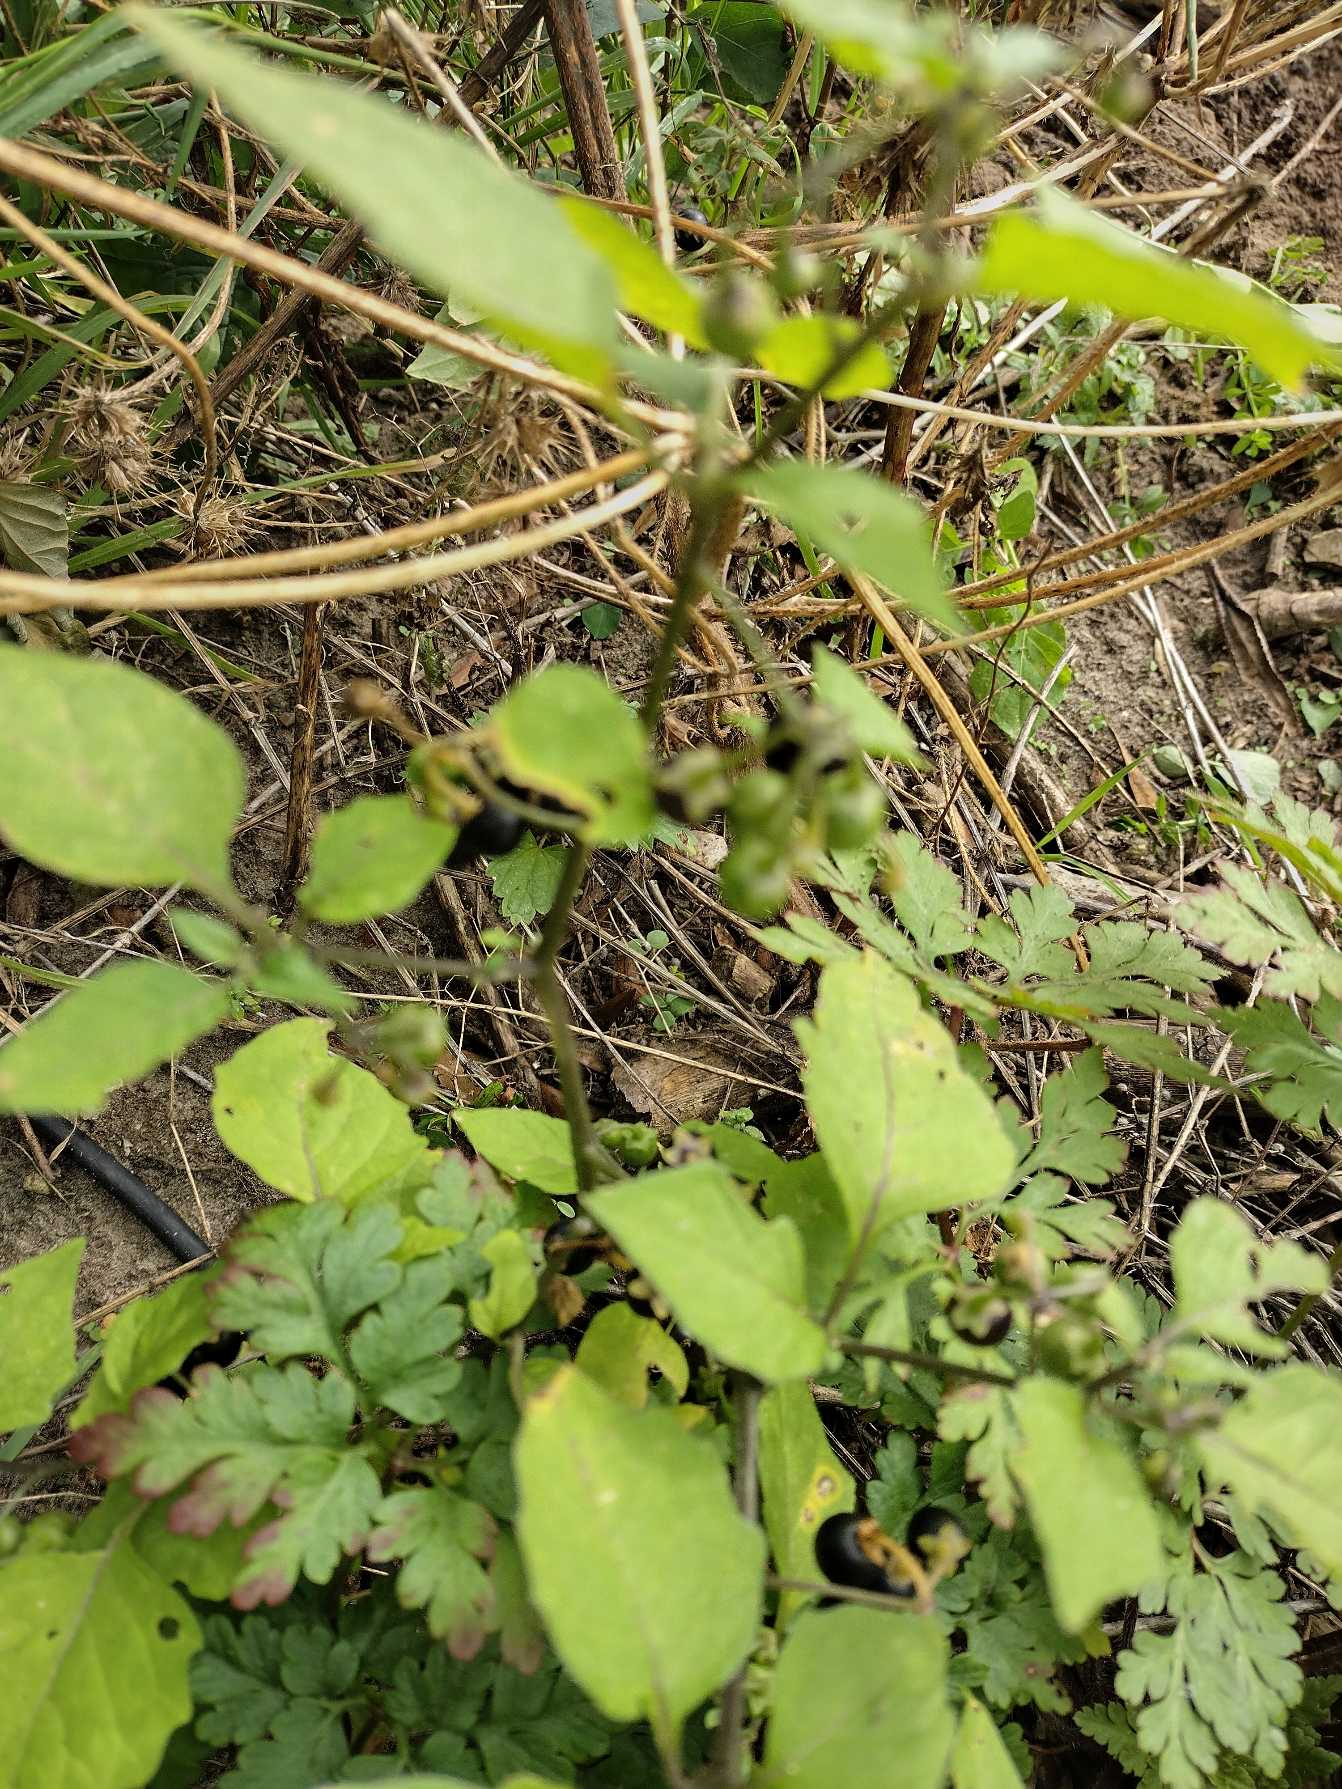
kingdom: Plantae
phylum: Tracheophyta
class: Magnoliopsida
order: Solanales
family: Solanaceae
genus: Solanum
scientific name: Solanum nigrum
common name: Sort natskygge
